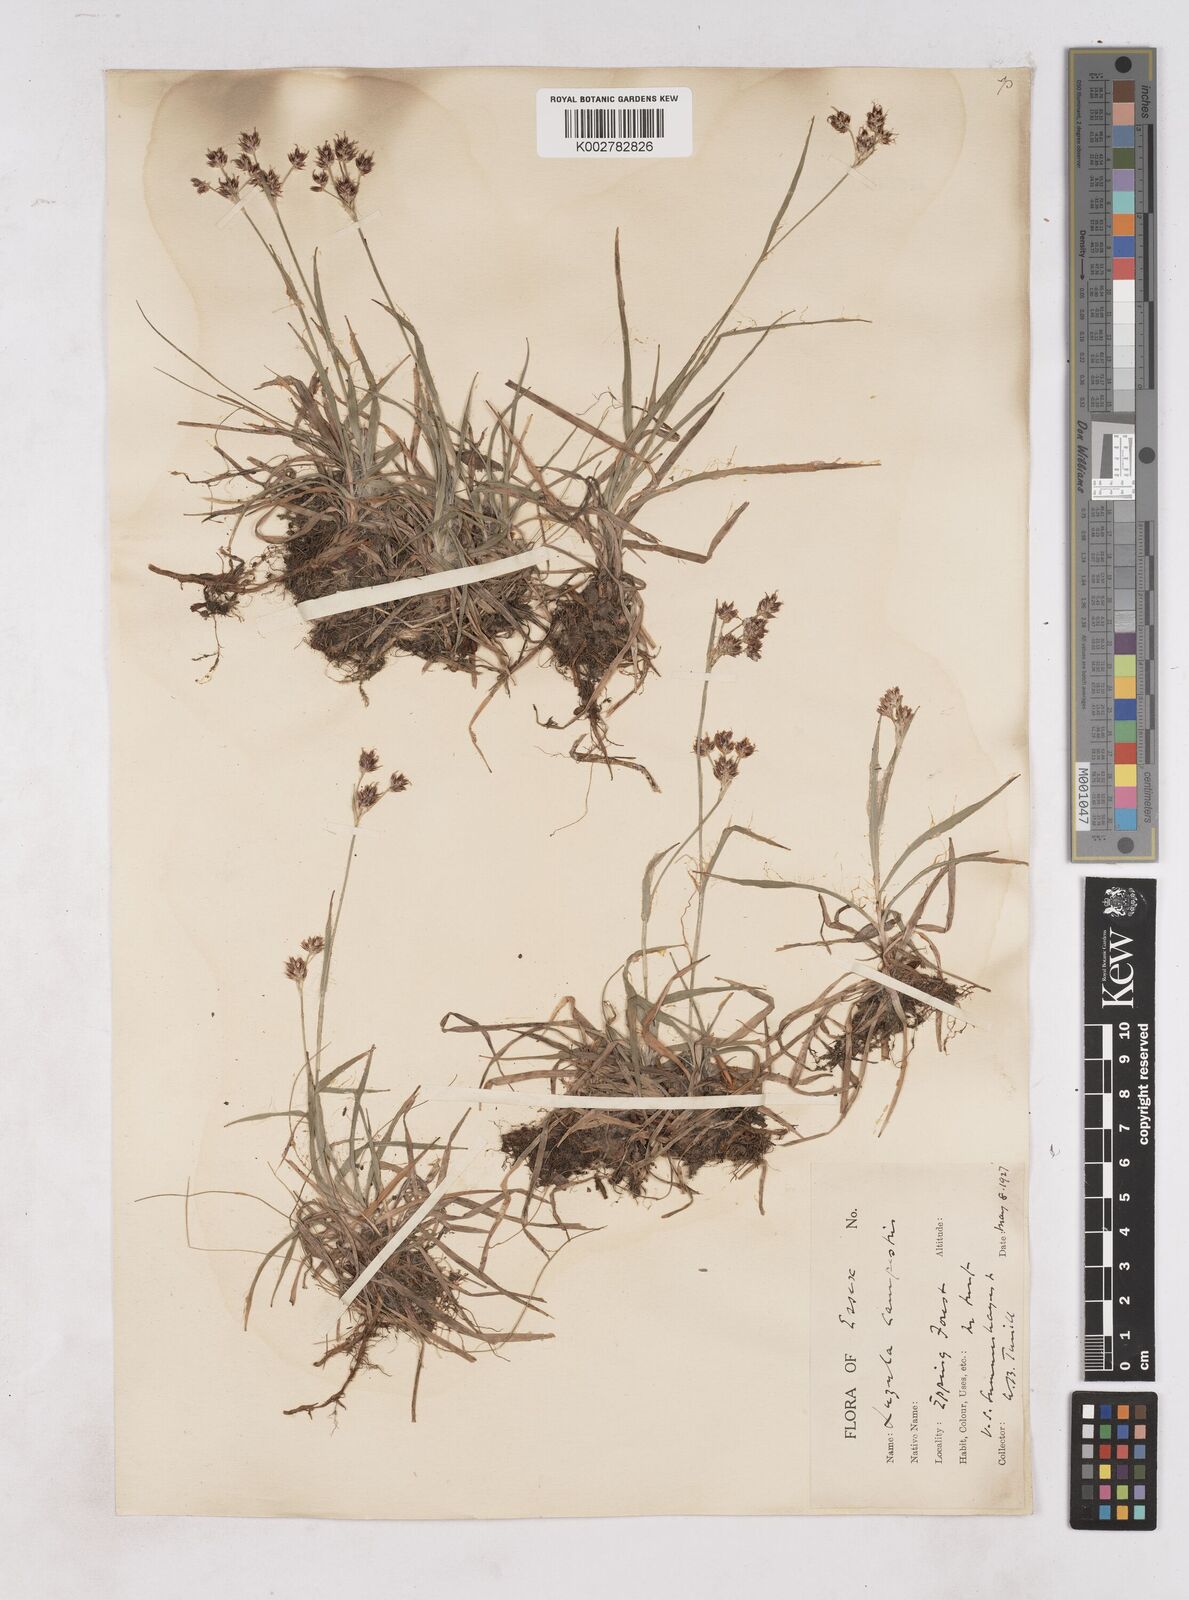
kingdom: Plantae
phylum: Tracheophyta
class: Liliopsida
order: Poales
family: Juncaceae
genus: Luzula
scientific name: Luzula campestris
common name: Field wood-rush
